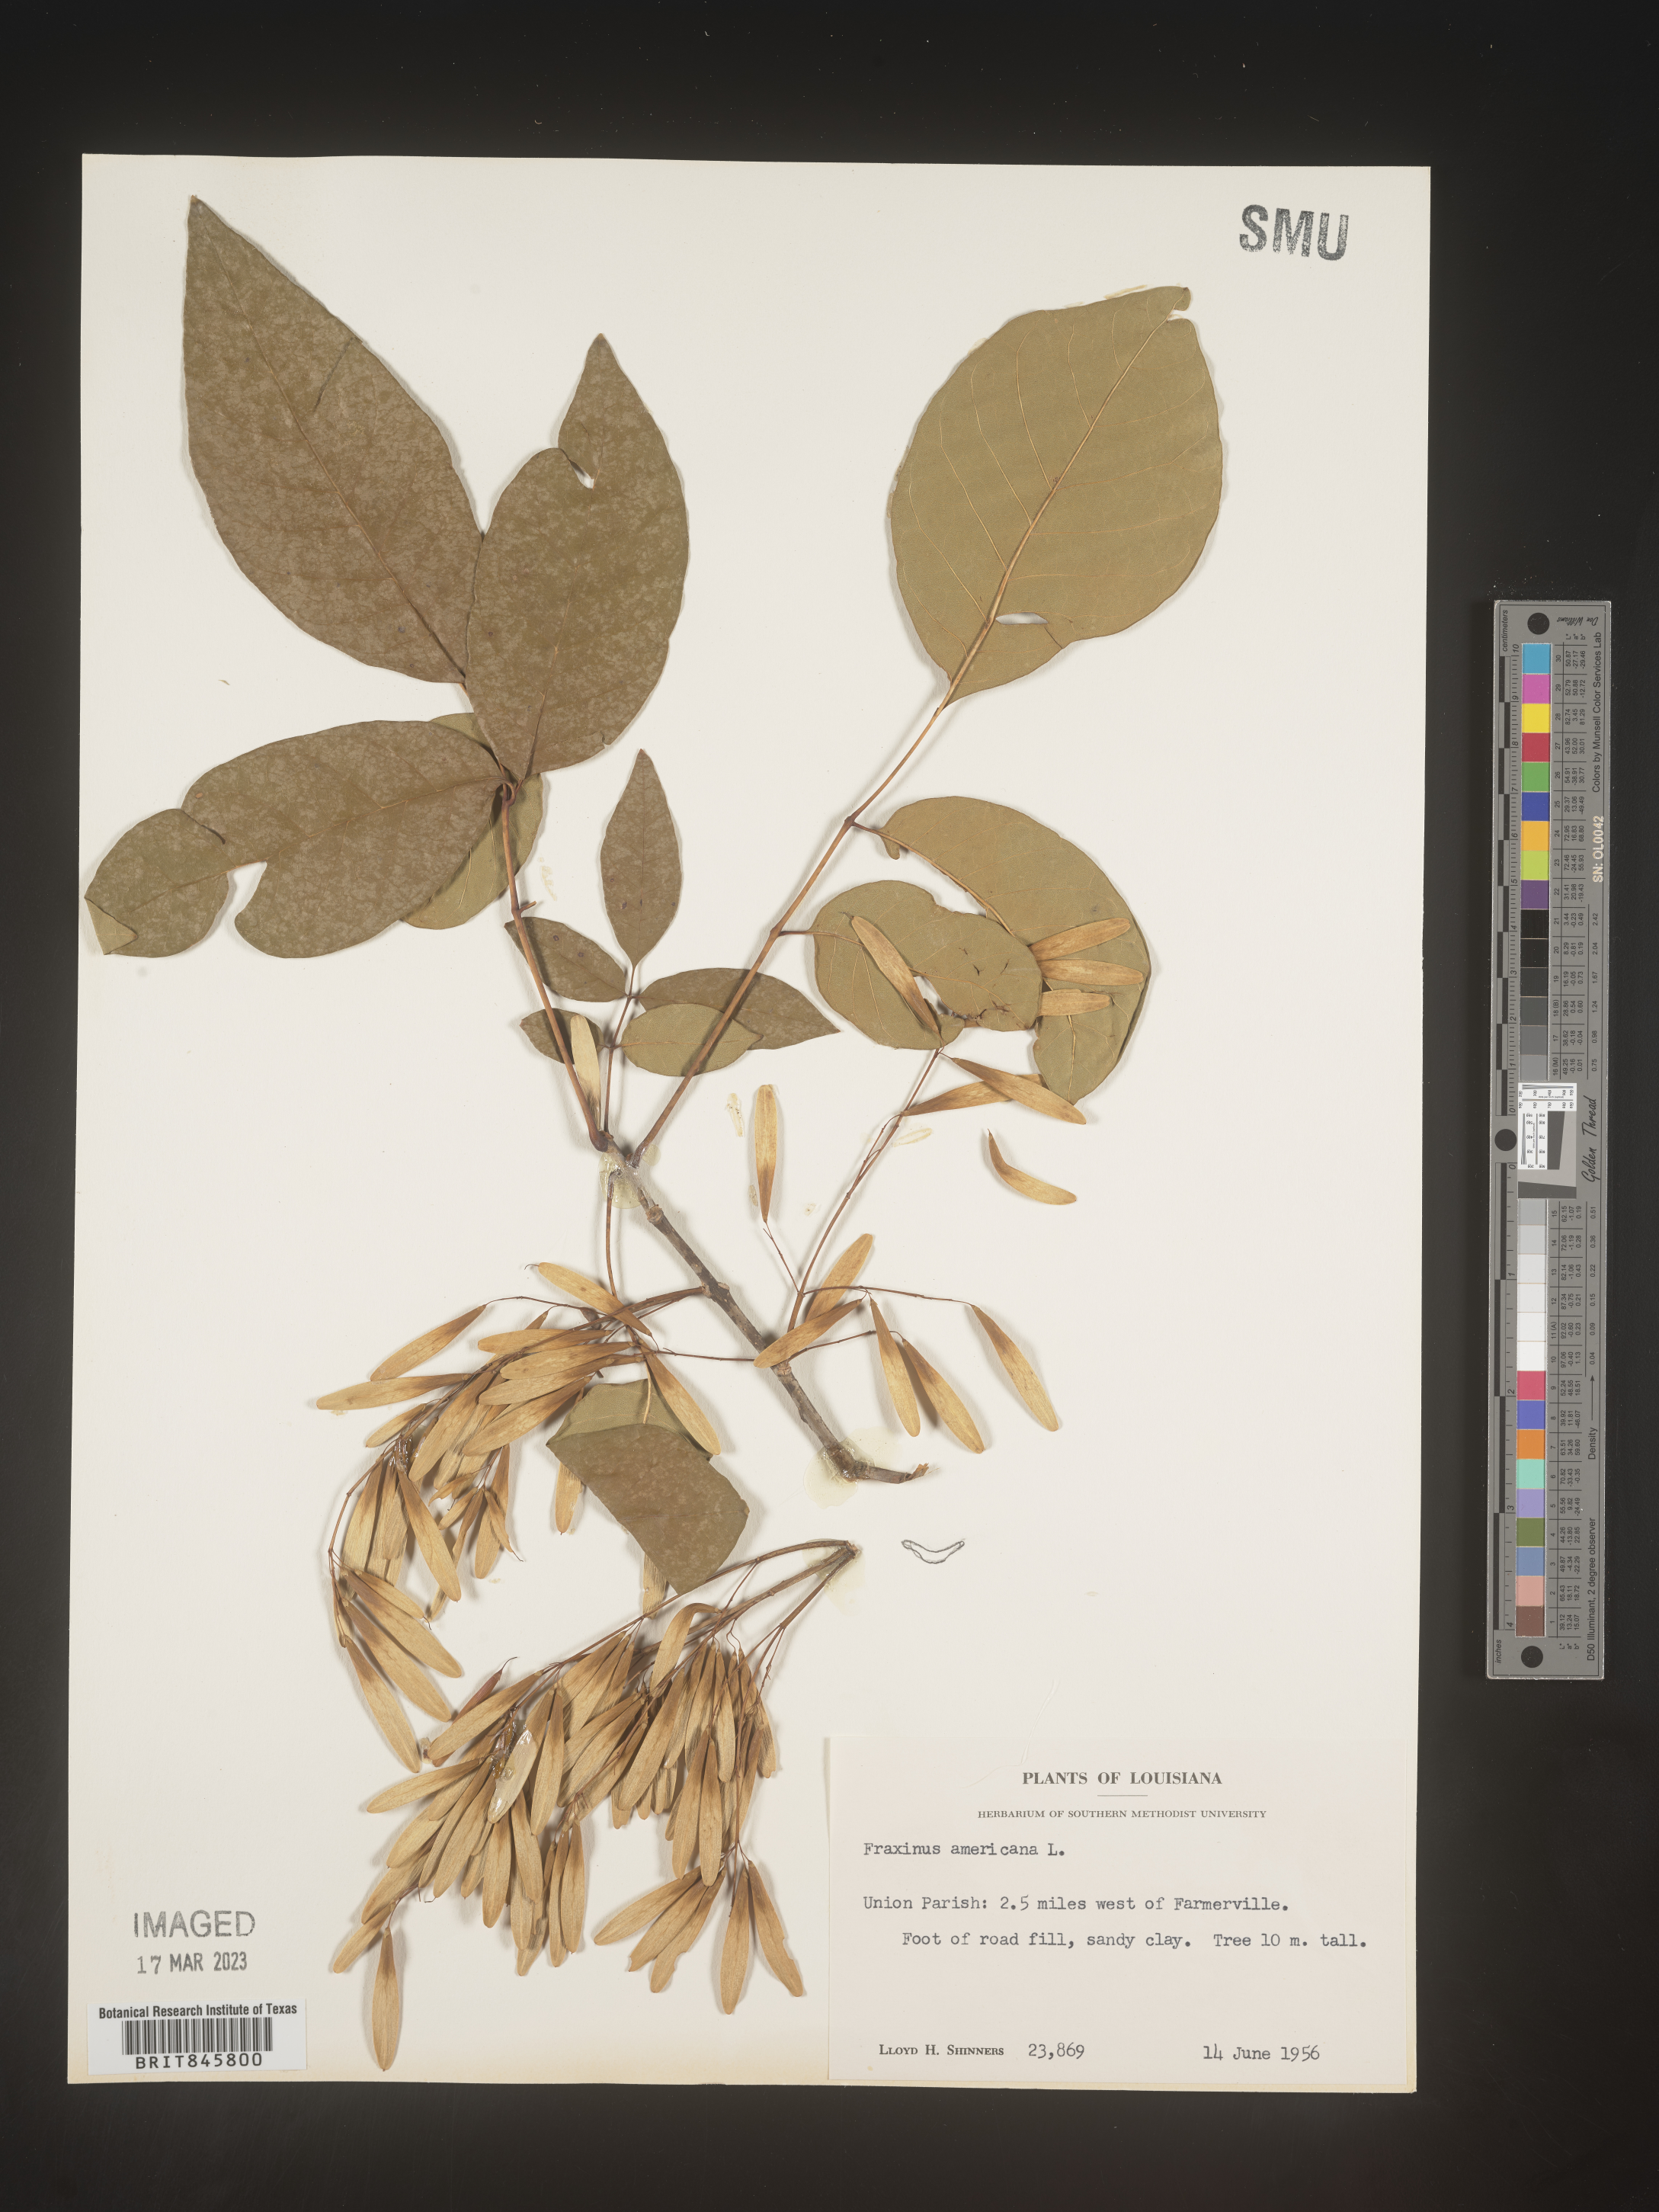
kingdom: Plantae
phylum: Tracheophyta
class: Magnoliopsida
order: Lamiales
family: Oleaceae
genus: Fraxinus
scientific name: Fraxinus americana
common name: White ash
